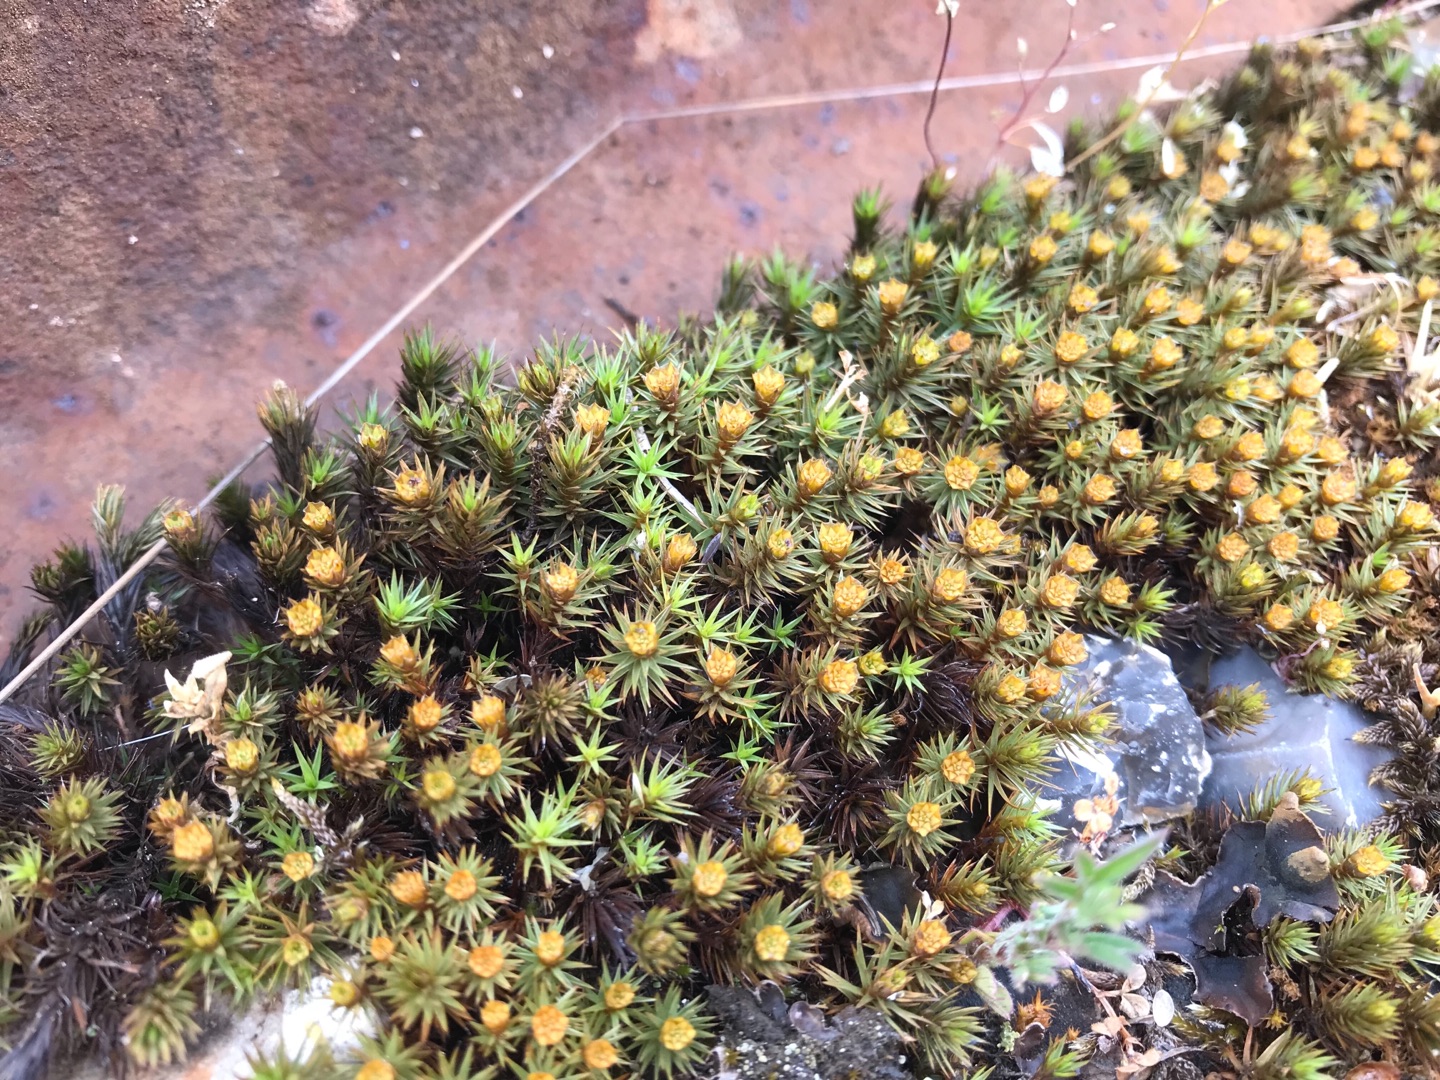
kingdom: Plantae
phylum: Bryophyta
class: Polytrichopsida
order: Polytrichales
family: Polytrichaceae
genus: Polytrichum
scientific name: Polytrichum juniperinum
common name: Ene-jomfruhår
